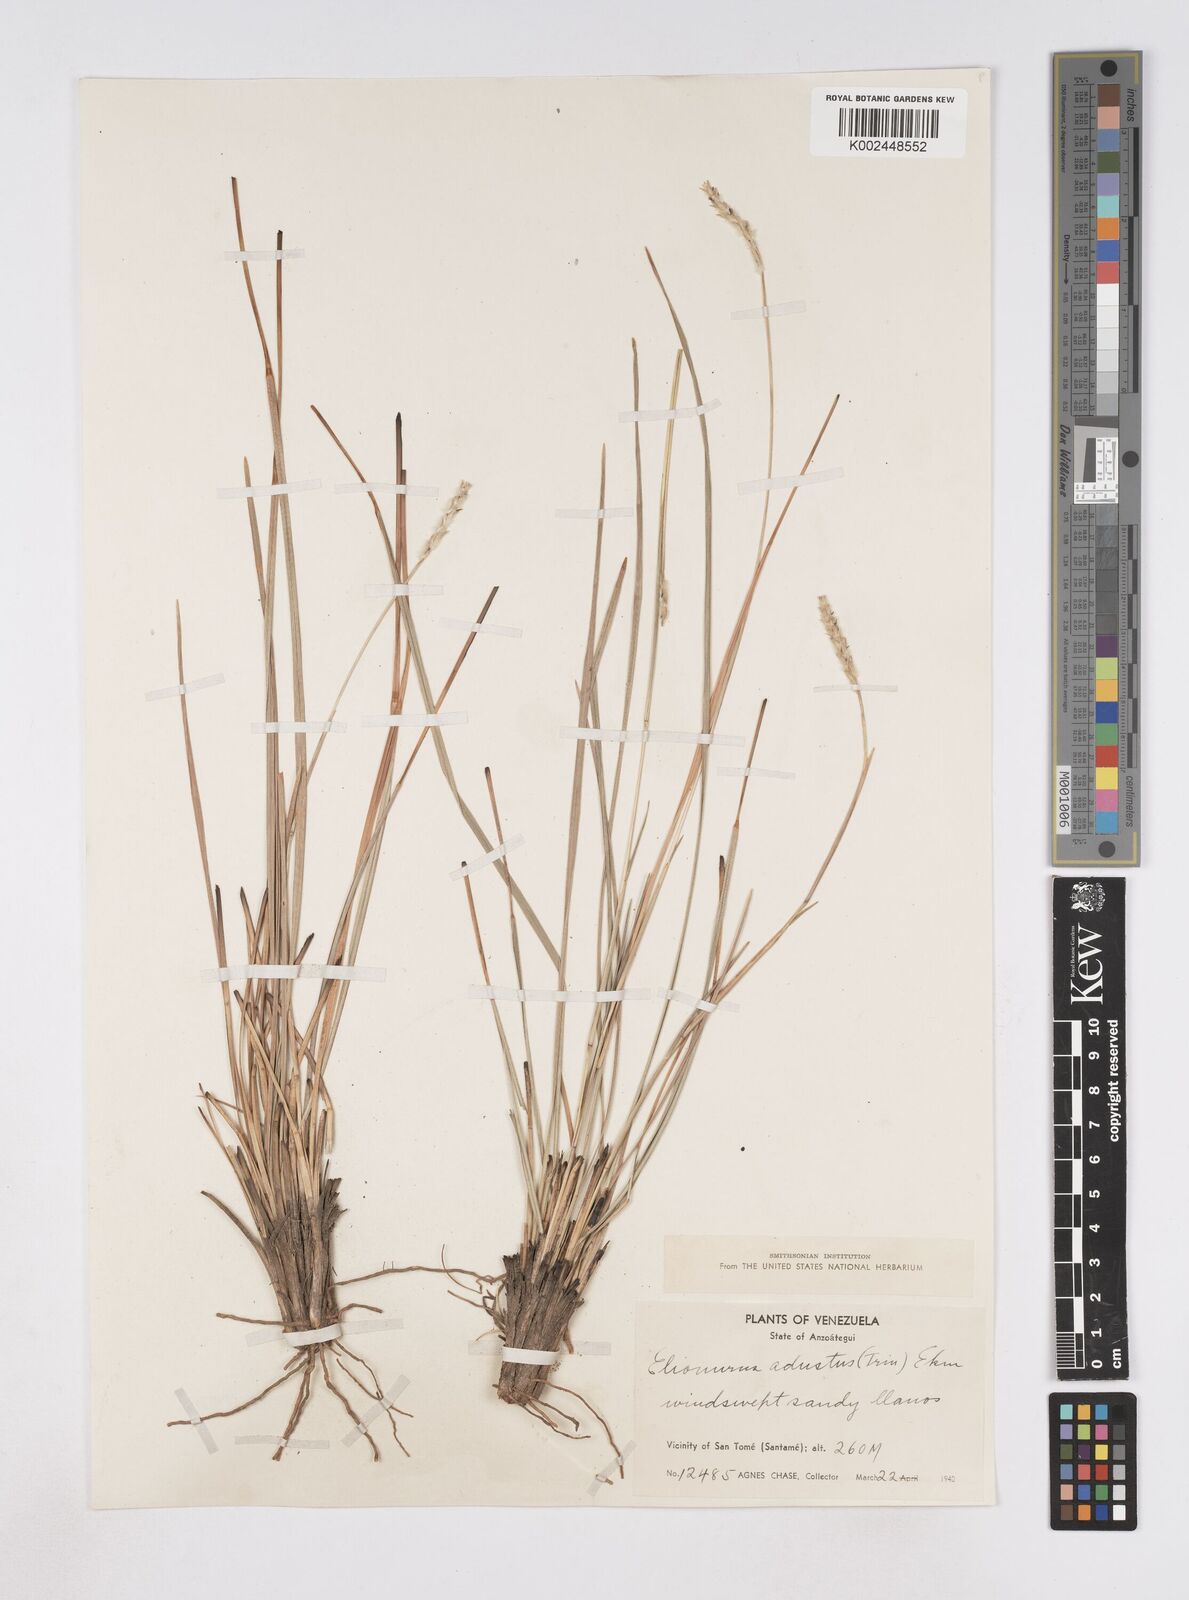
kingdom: Plantae
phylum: Tracheophyta
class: Liliopsida
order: Poales
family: Poaceae
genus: Elionurus
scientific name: Elionurus planifolius
